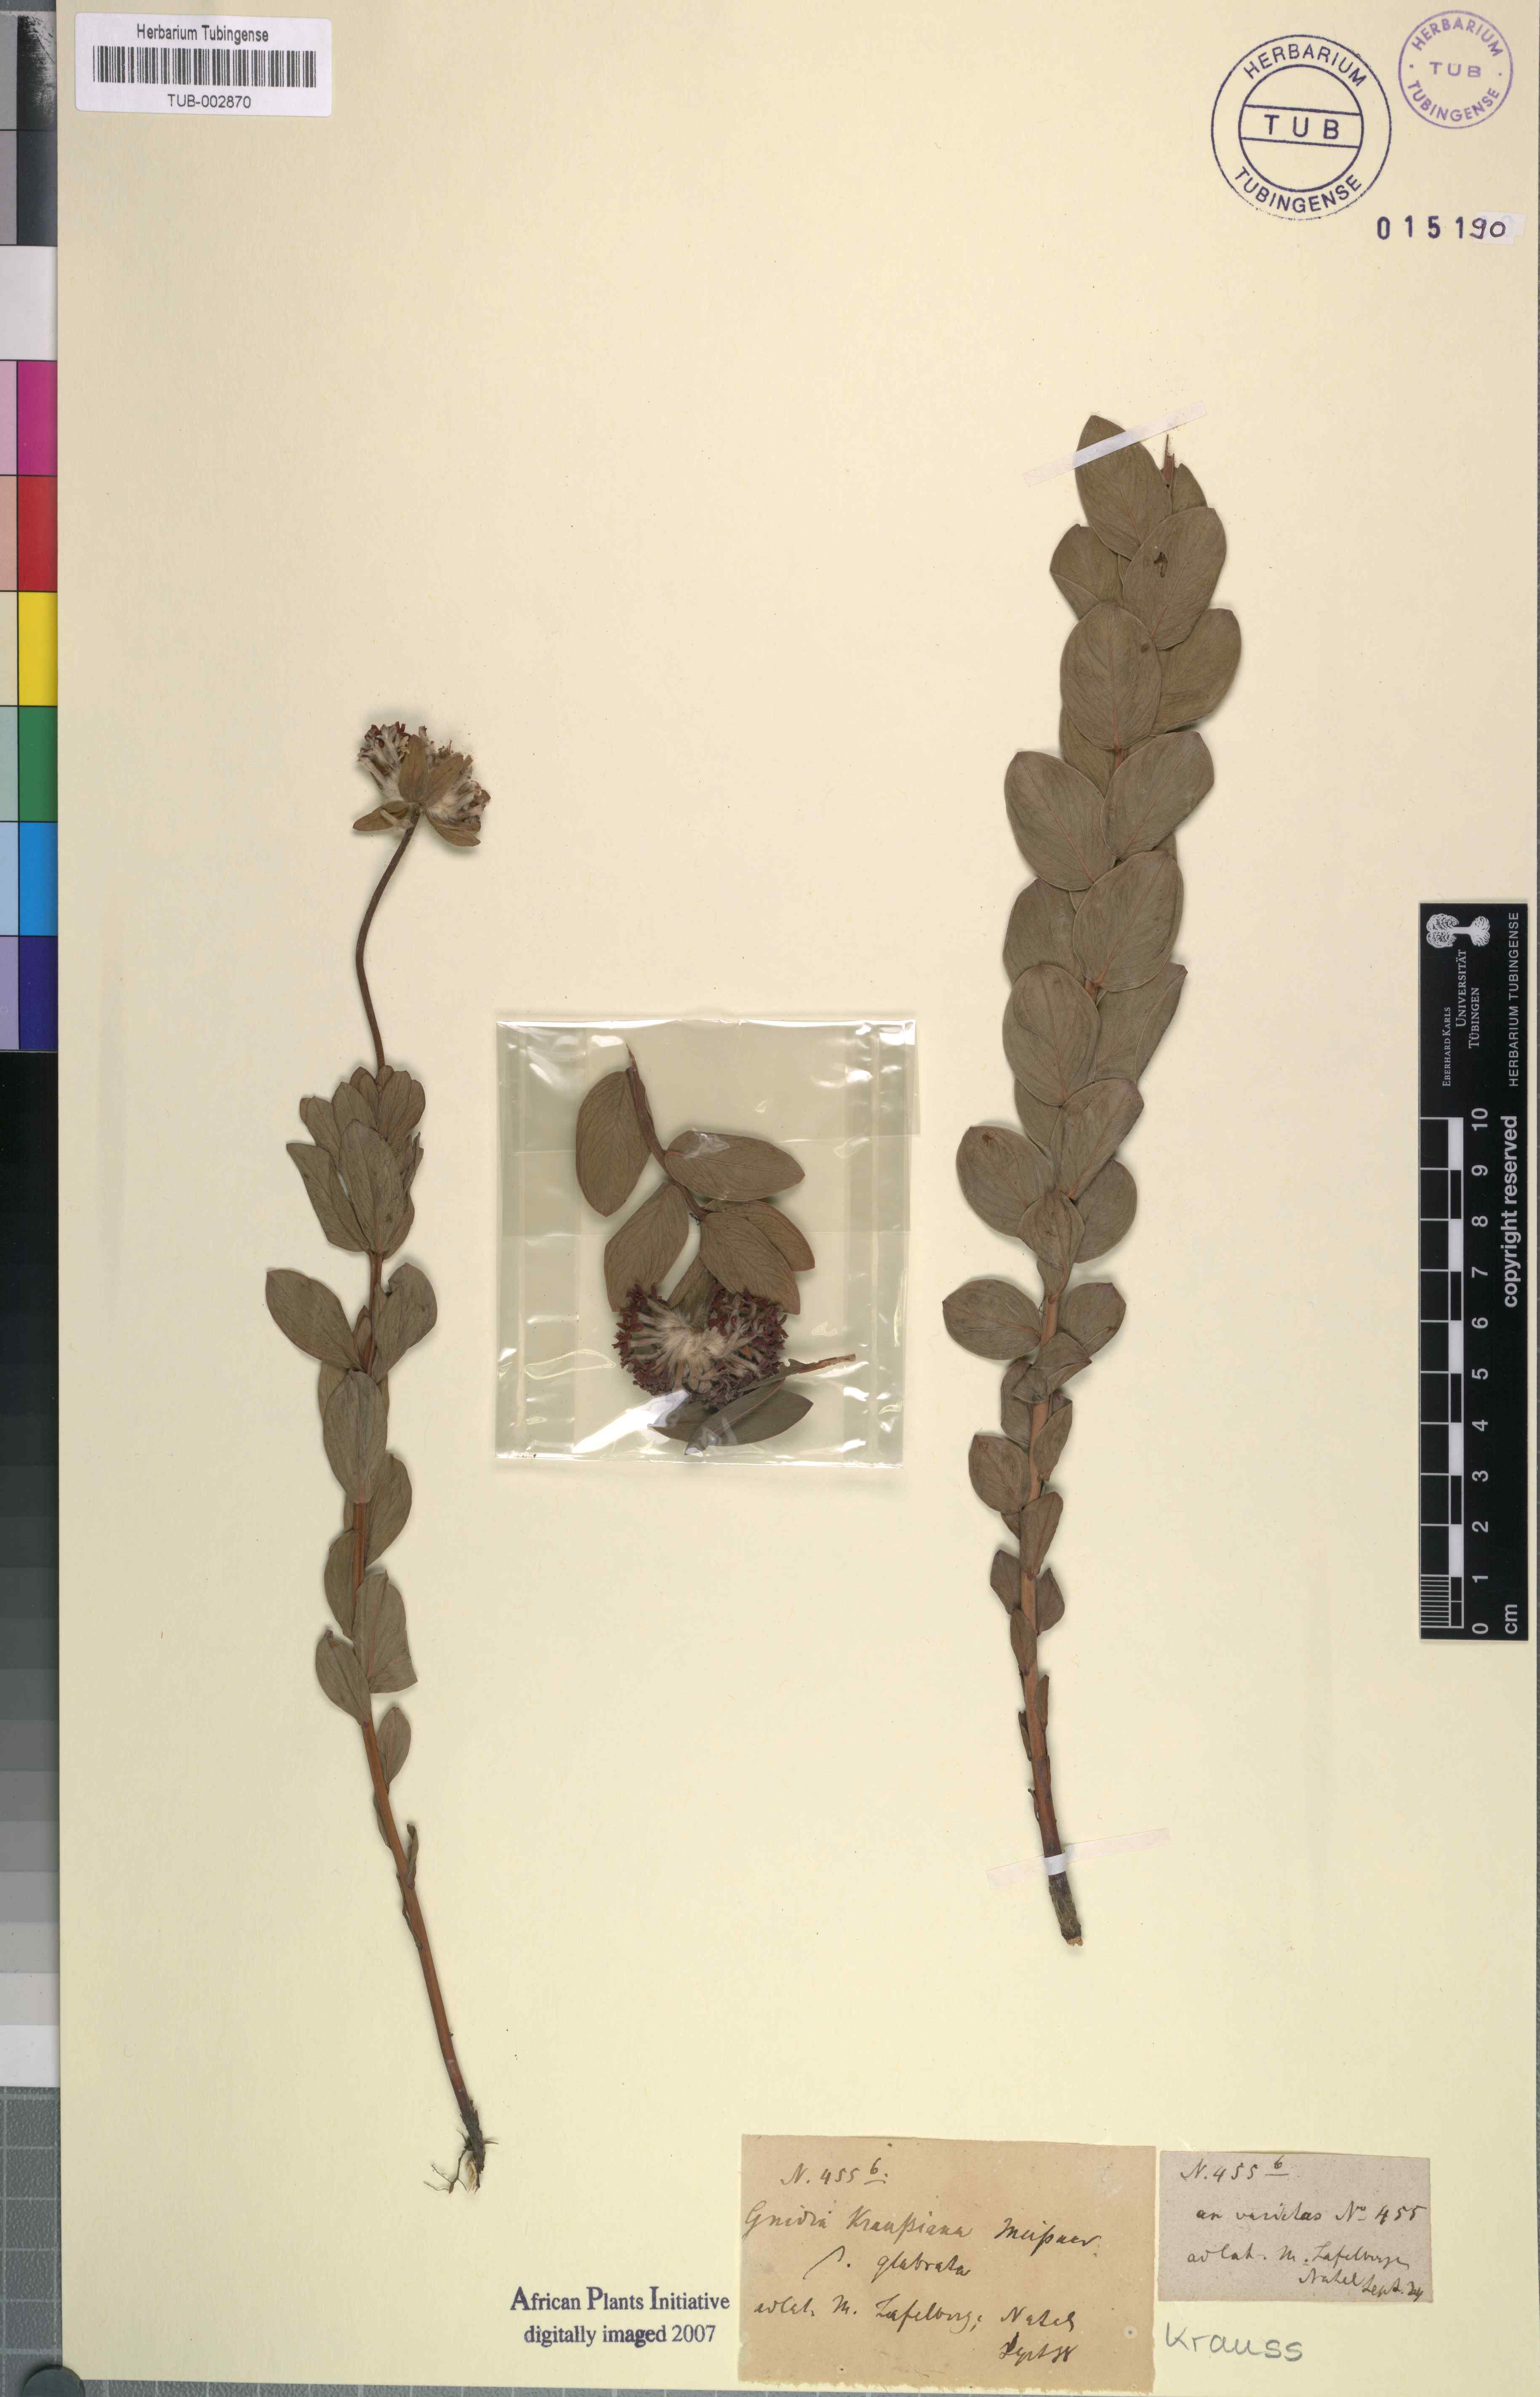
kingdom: Plantae
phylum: Tracheophyta
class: Magnoliopsida
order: Malvales
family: Thymelaeaceae
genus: Gnidia
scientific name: Gnidia kraussiana
